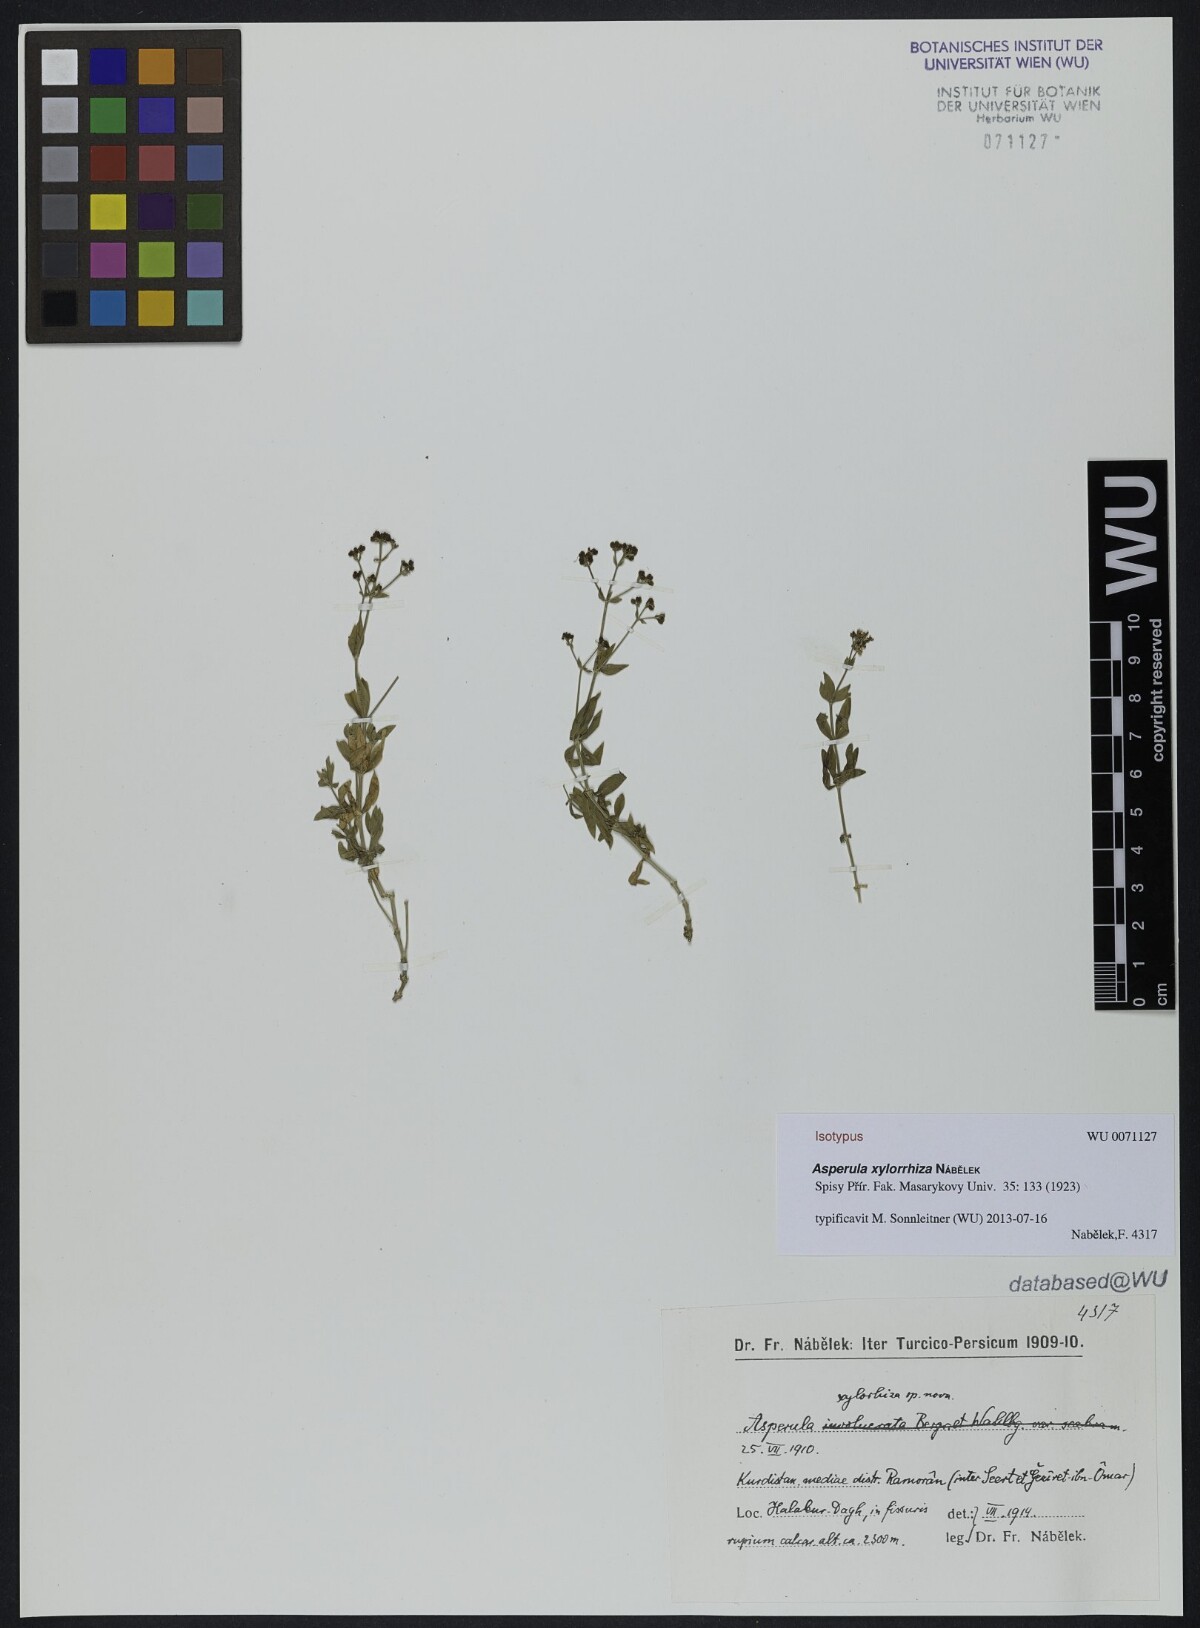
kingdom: Plantae
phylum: Tracheophyta
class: Magnoliopsida
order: Gentianales
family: Rubiaceae
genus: Asperula
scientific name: Asperula xylorrhiza
